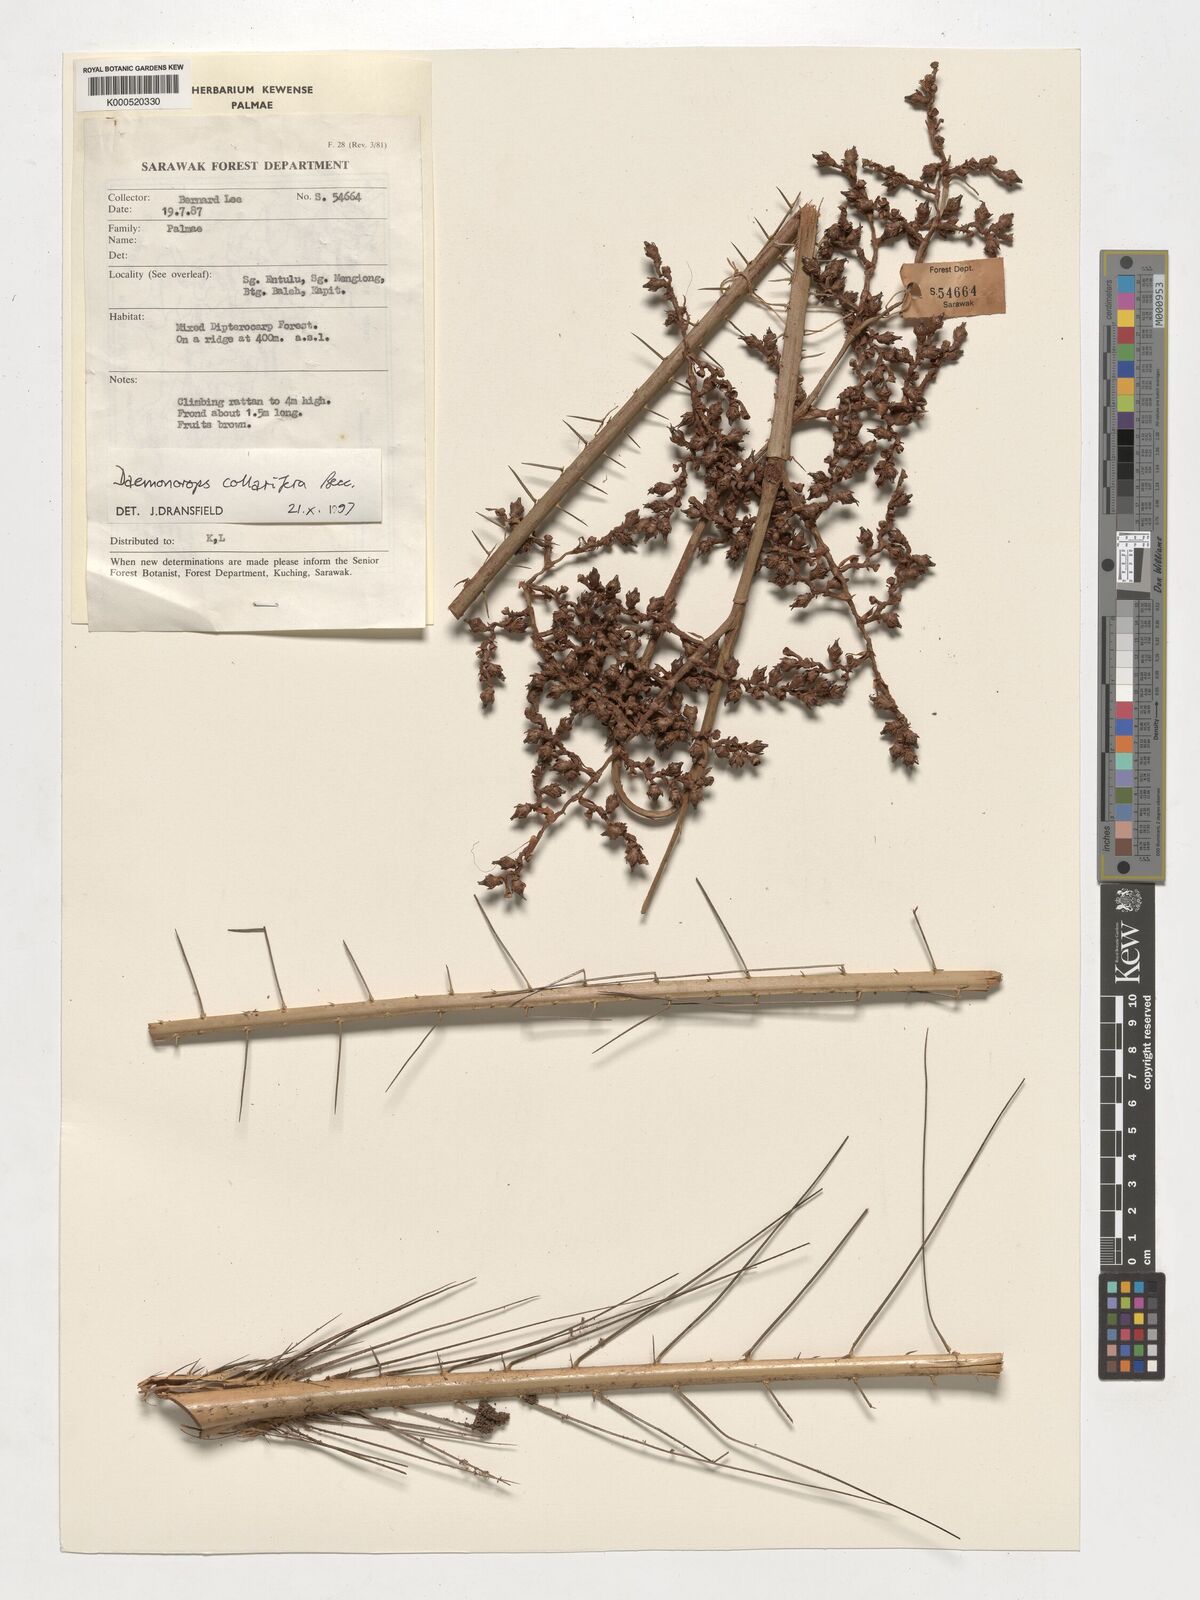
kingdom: Plantae
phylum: Tracheophyta
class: Liliopsida
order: Arecales
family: Arecaceae
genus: Calamus
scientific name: Calamus geniculatus
